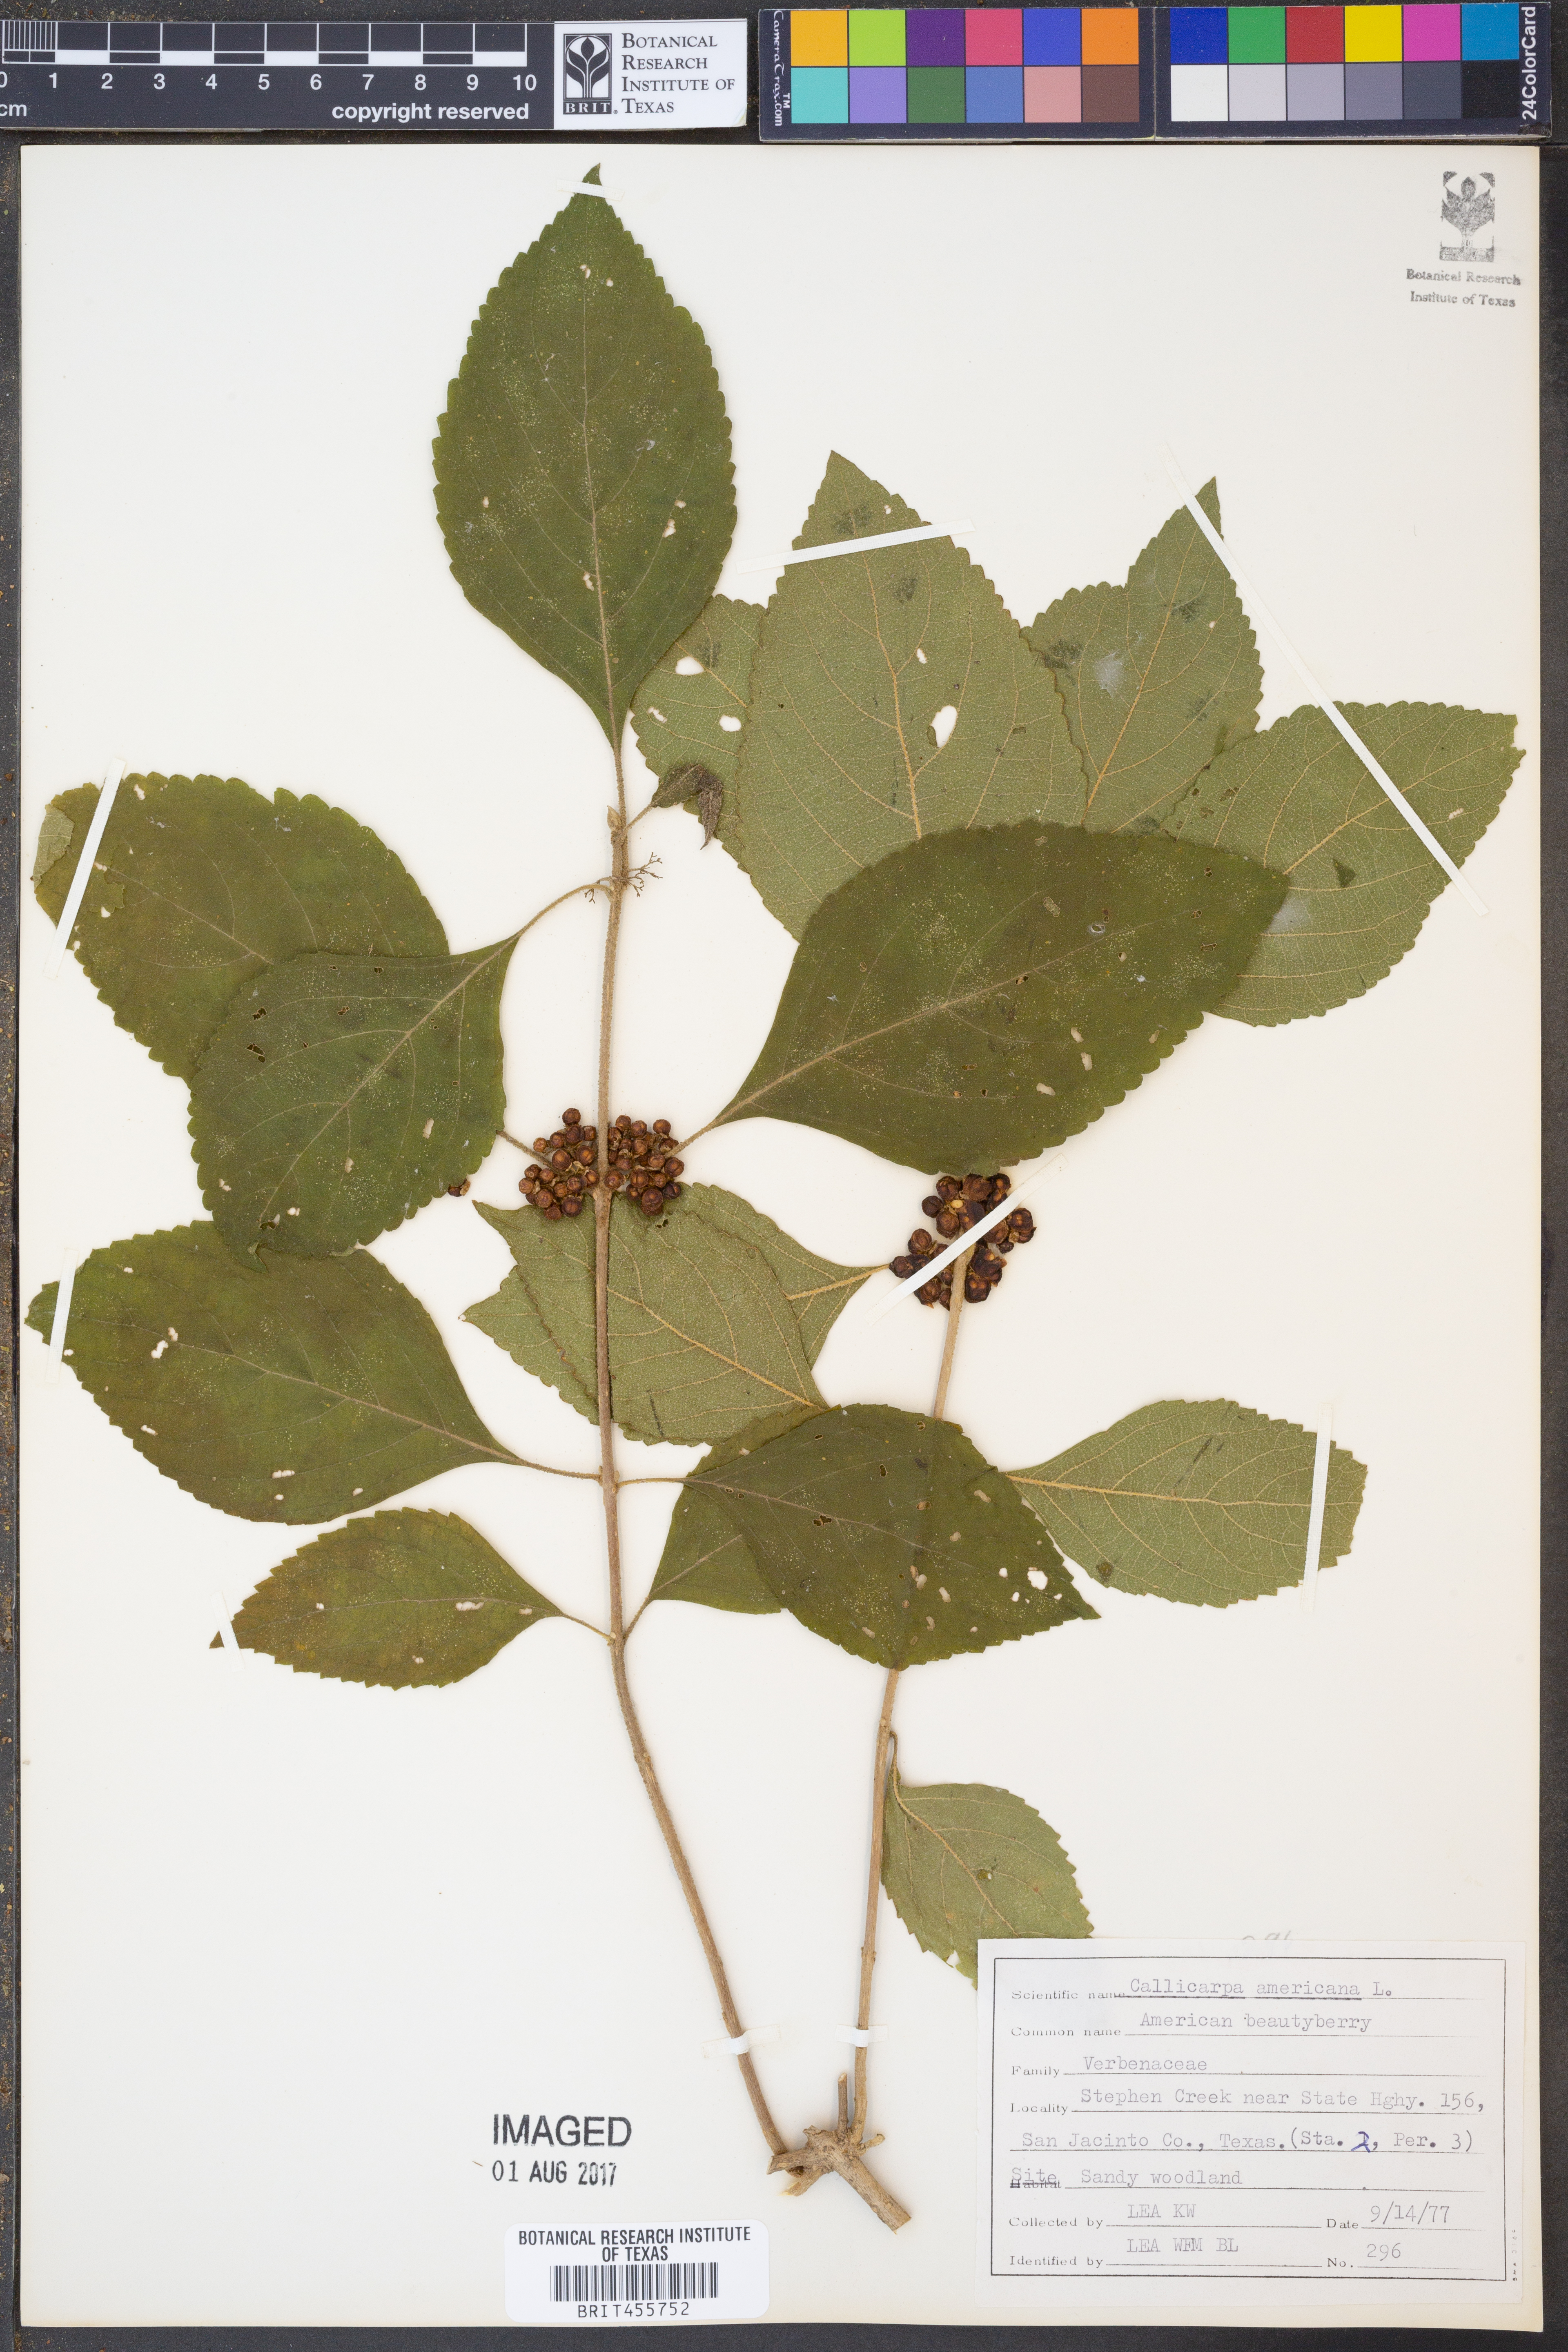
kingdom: Plantae
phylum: Tracheophyta
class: Magnoliopsida
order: Lamiales
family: Lamiaceae
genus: Callicarpa
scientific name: Callicarpa americana
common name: American beautyberry
